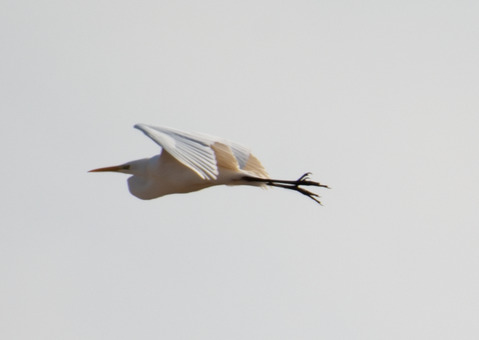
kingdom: Animalia
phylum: Chordata
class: Aves
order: Pelecaniformes
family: Ardeidae
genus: Ardea
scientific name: Ardea alba
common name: Sølvhejre
